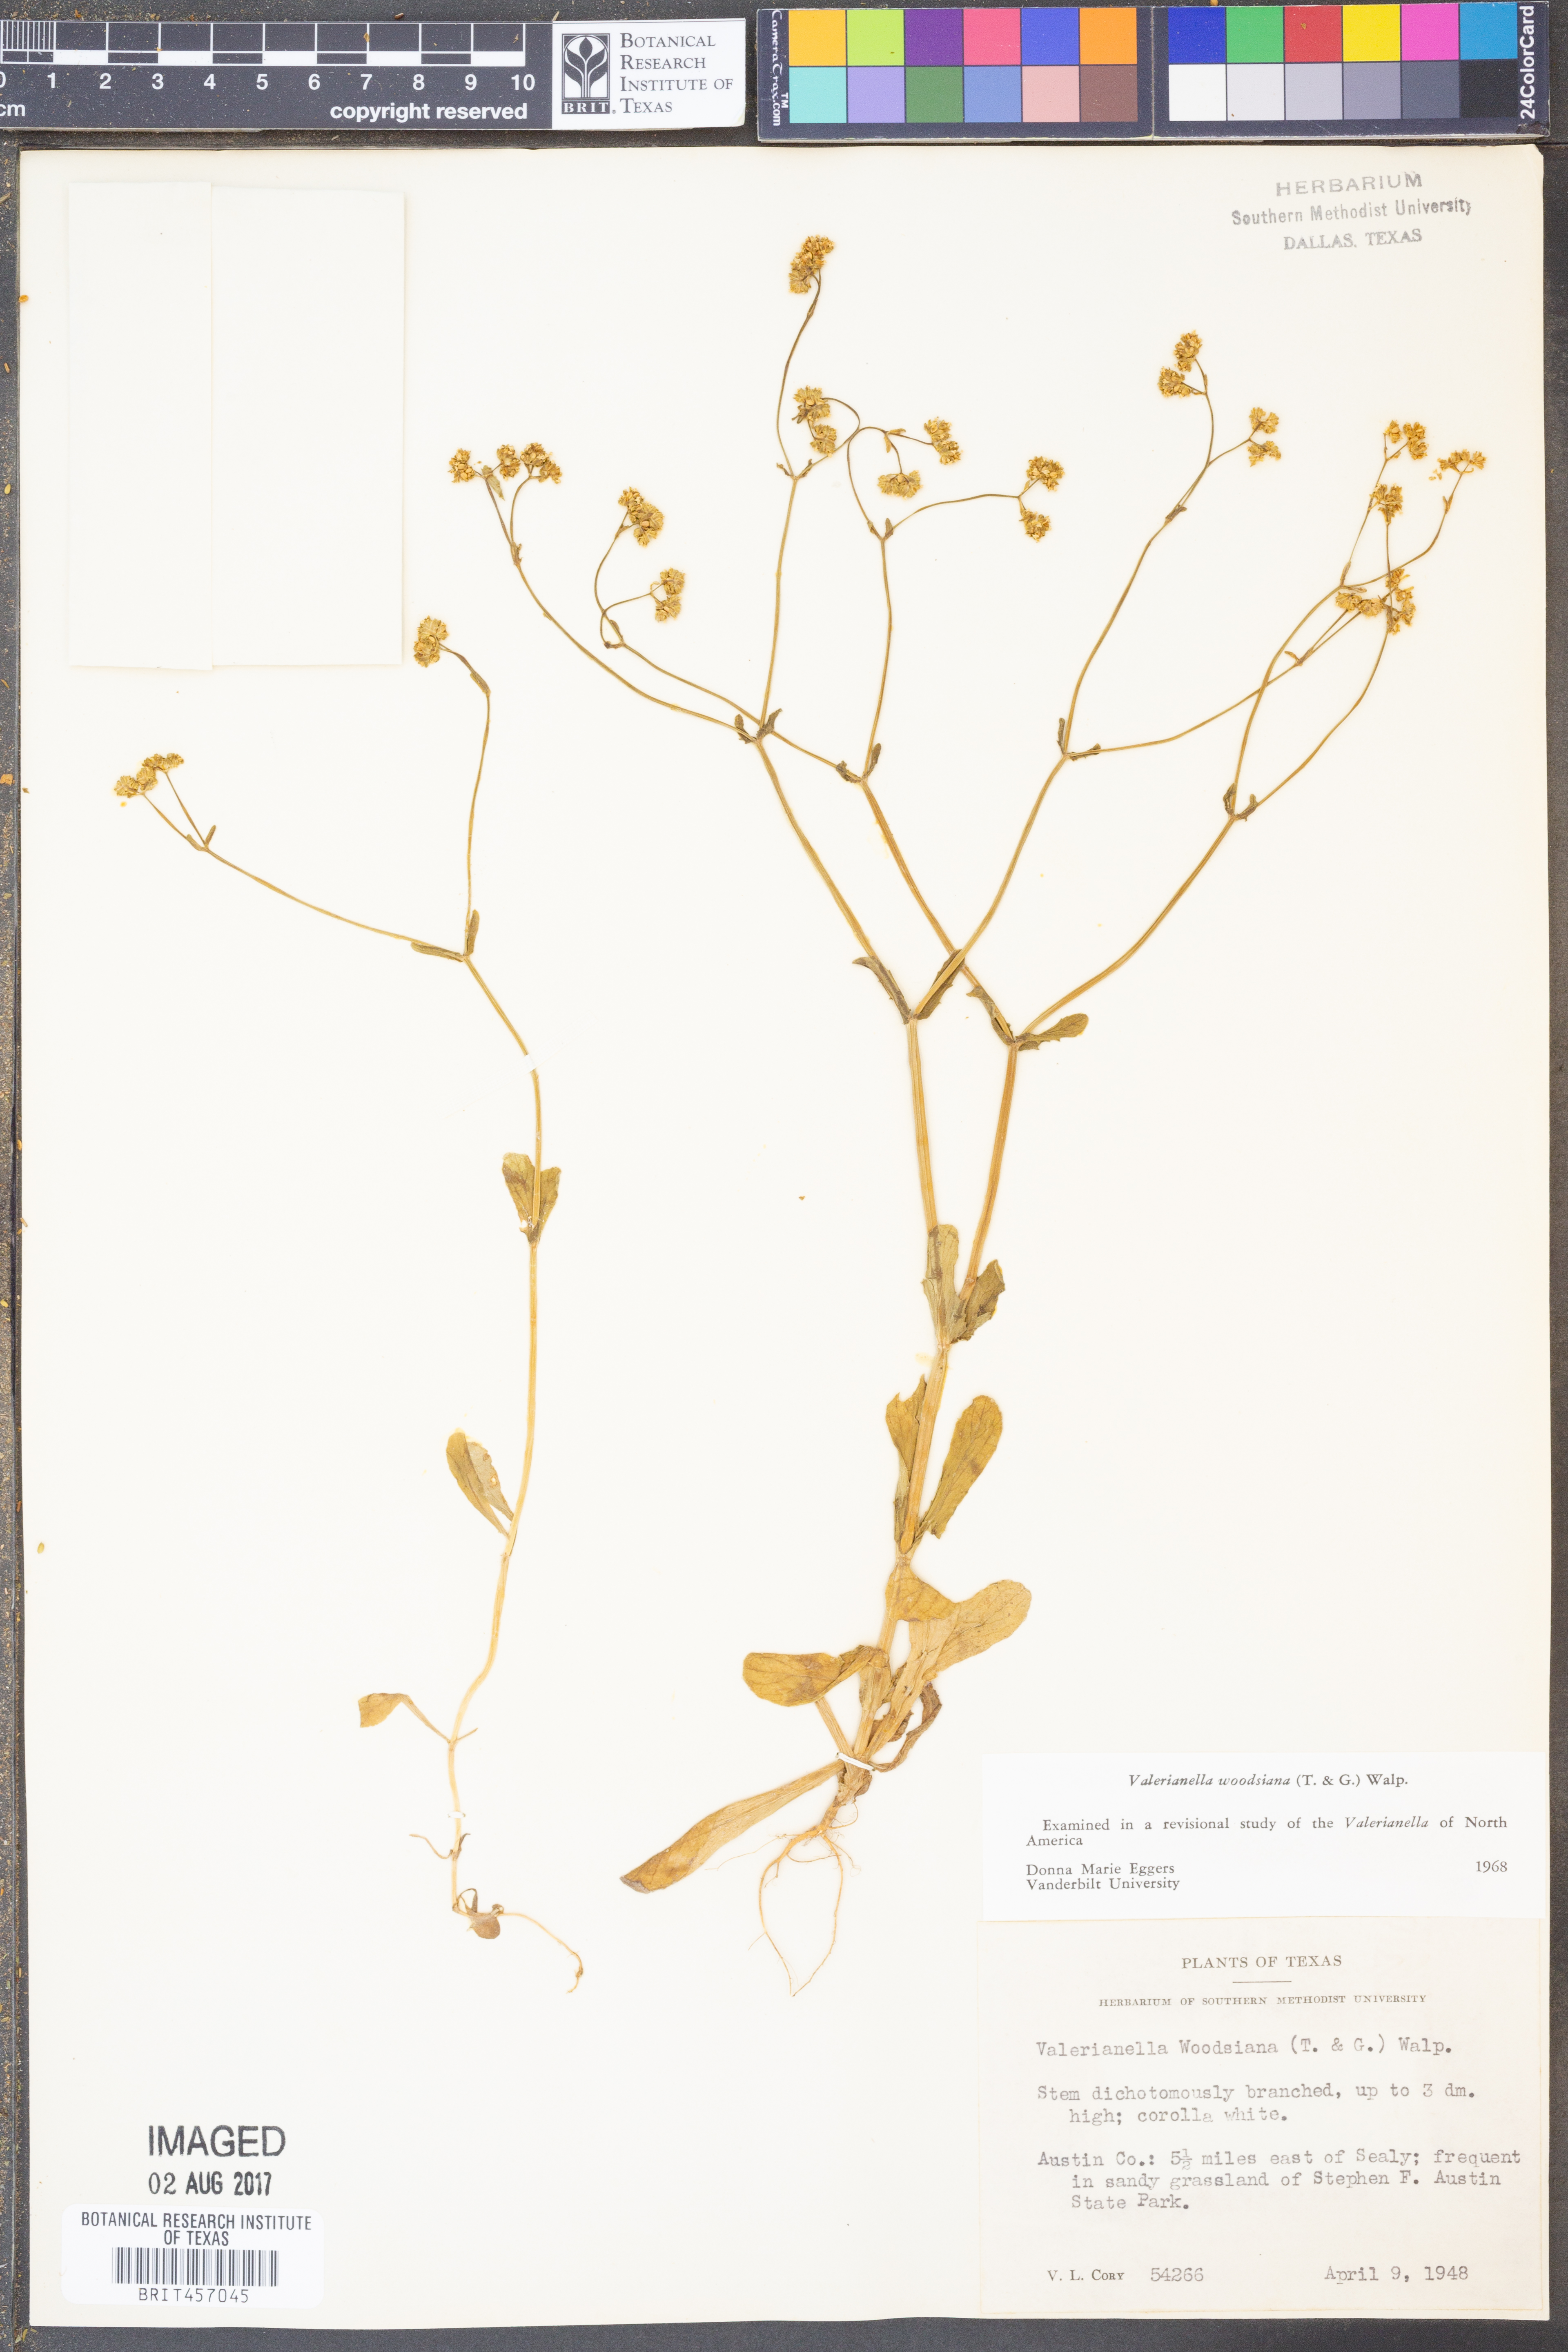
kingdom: Plantae
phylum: Tracheophyta
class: Magnoliopsida
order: Dipsacales
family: Caprifoliaceae
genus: Valerianella
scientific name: Valerianella radiata
